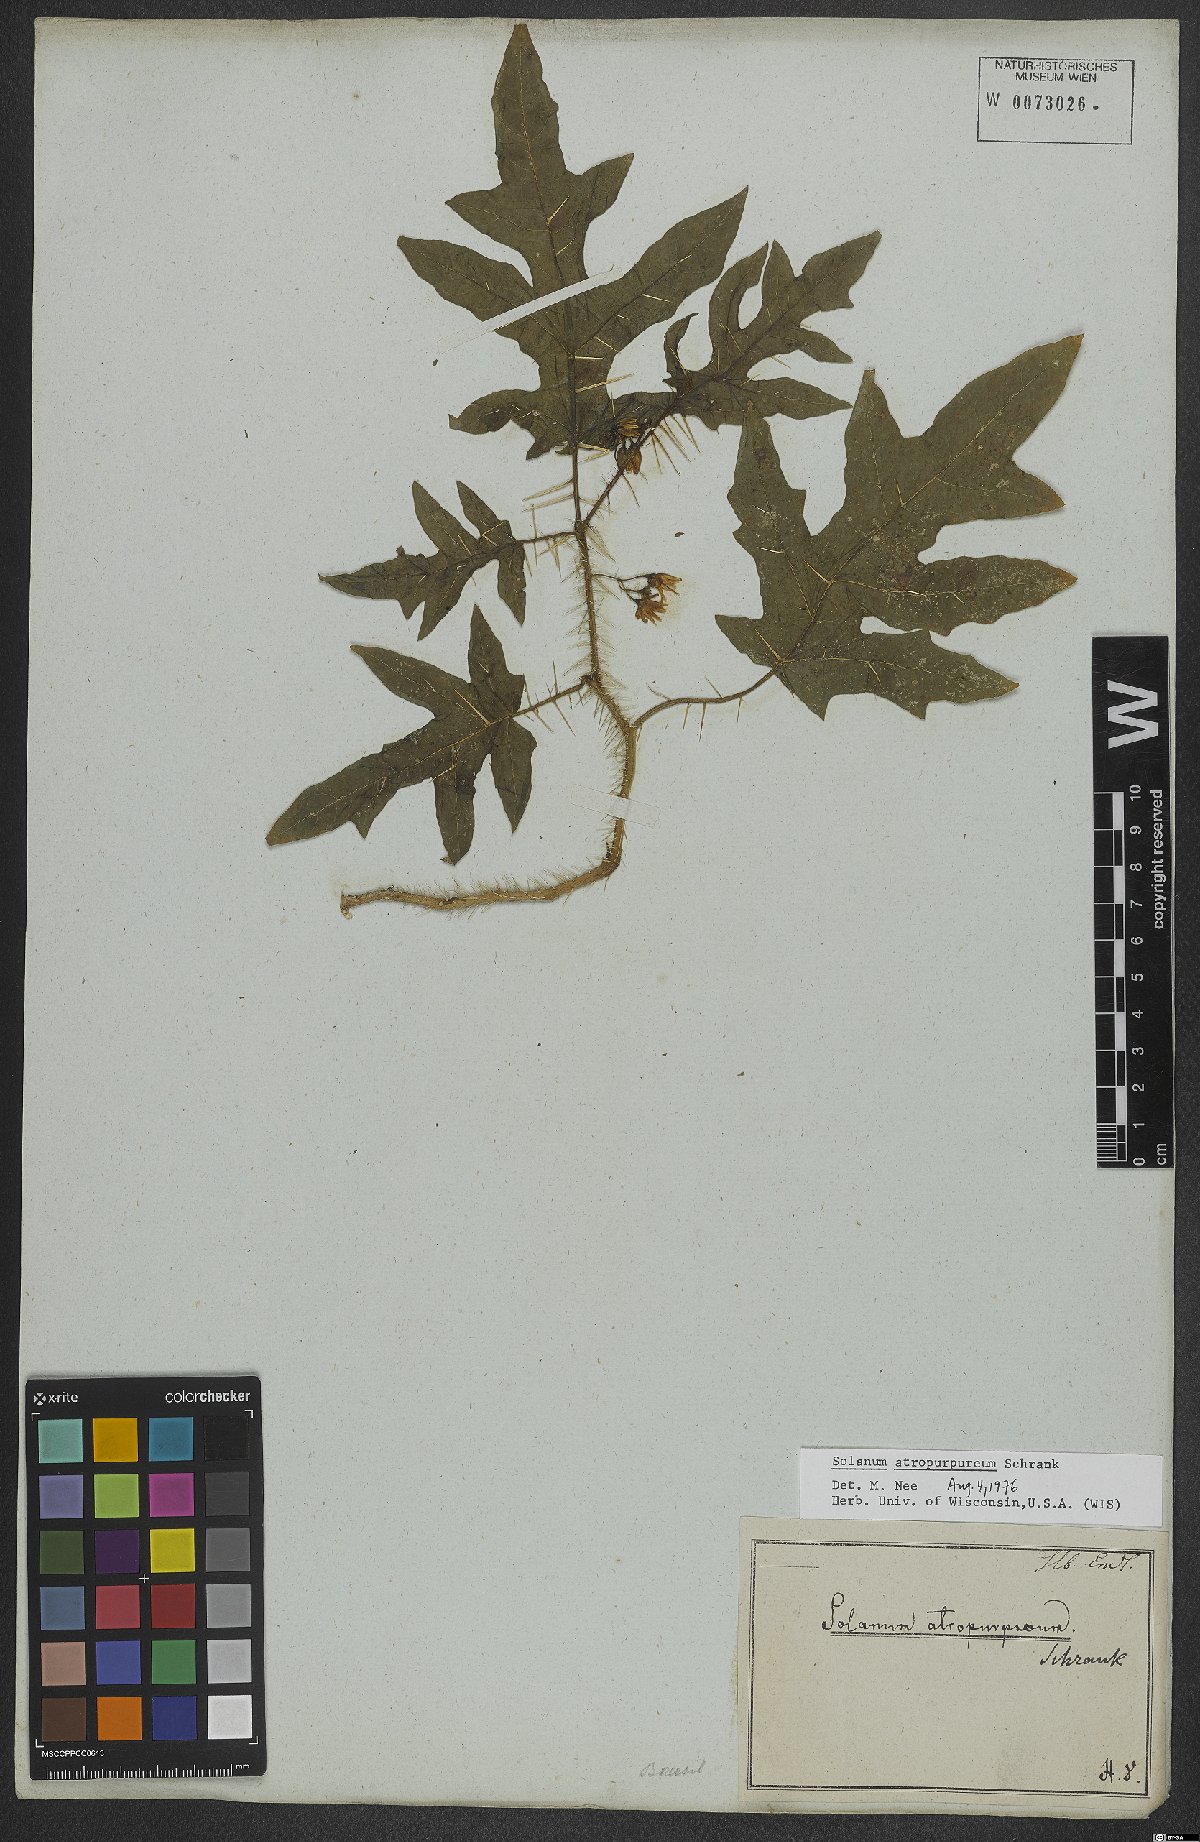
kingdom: Plantae
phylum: Tracheophyta
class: Magnoliopsida
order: Solanales
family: Solanaceae
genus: Solanum
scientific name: Solanum atropurpureum
